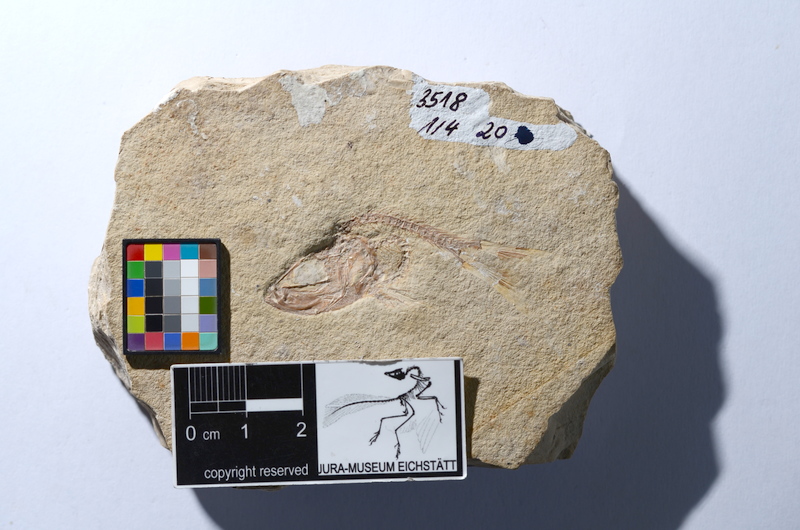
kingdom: Animalia
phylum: Chordata
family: Ascalaboidae
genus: Tharsis
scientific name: Tharsis dubius
